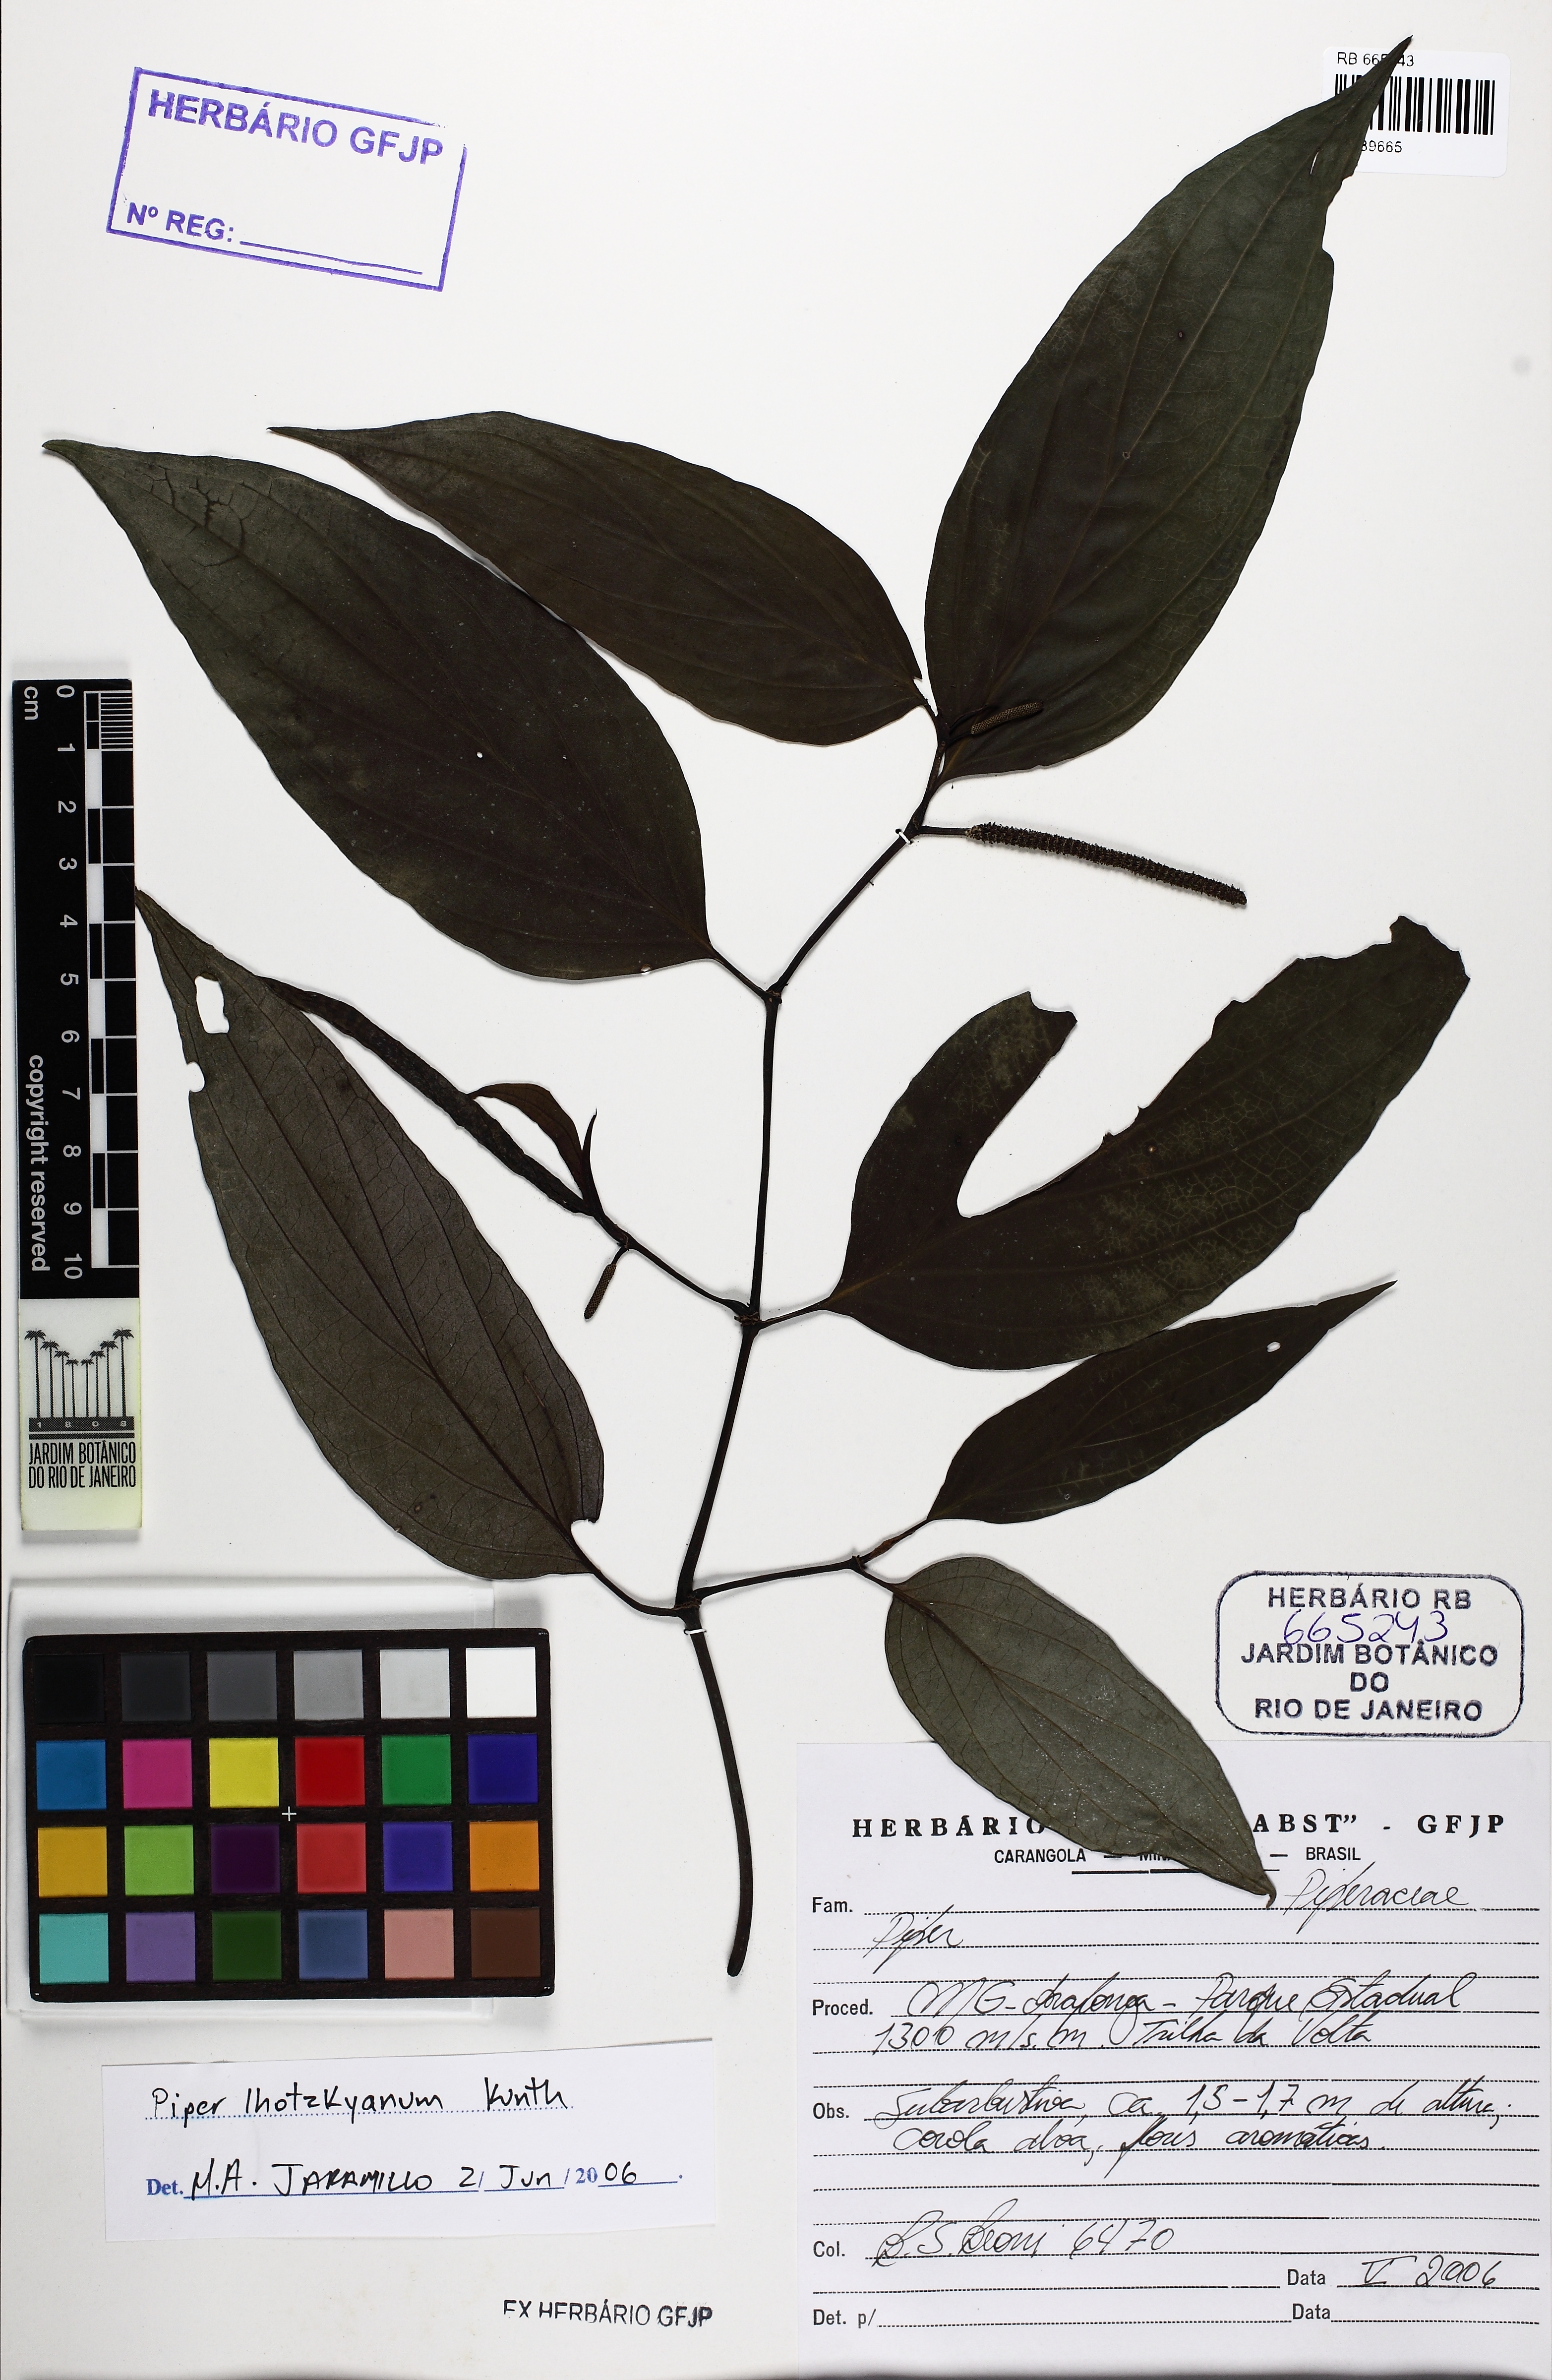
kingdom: Plantae
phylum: Tracheophyta
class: Magnoliopsida
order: Piperales
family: Piperaceae
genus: Piper
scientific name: Piper lhotzkyanum
